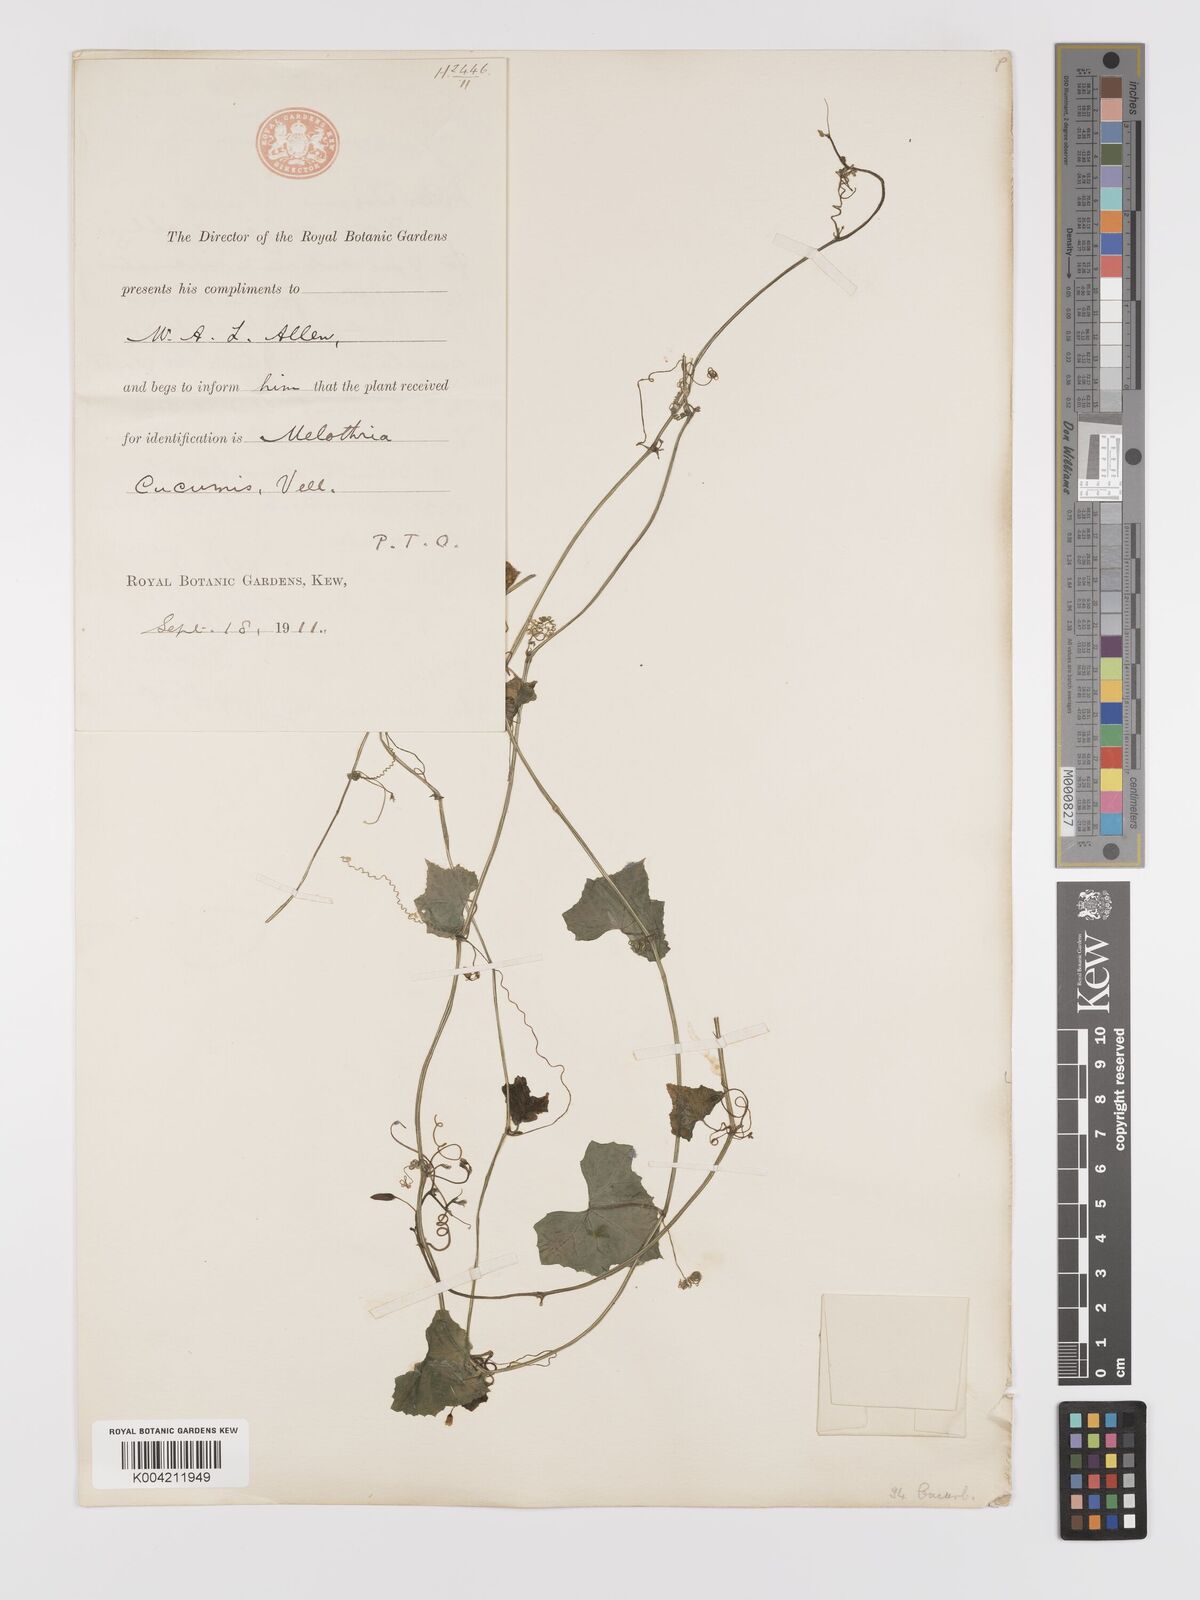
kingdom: Plantae
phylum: Tracheophyta
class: Magnoliopsida
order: Cucurbitales
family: Cucurbitaceae
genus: Melothria
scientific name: Melothria pendula
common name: Creeping-cucumber
